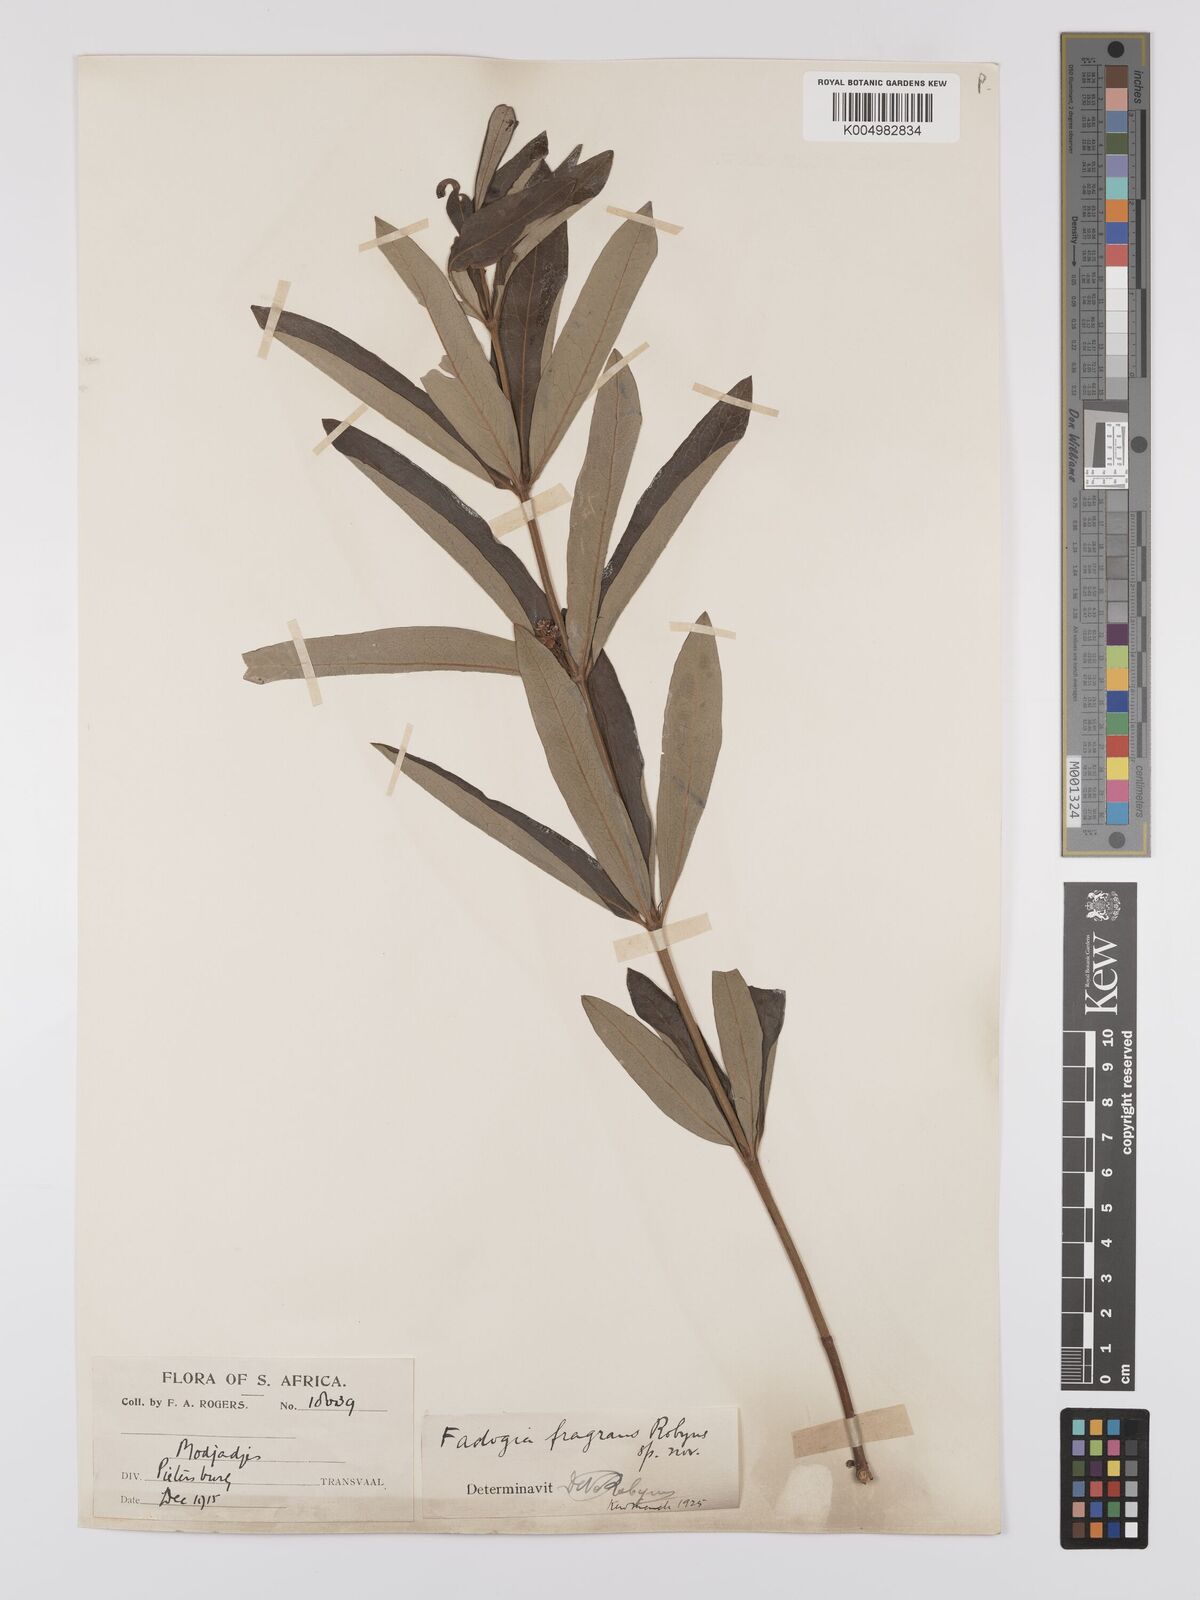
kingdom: Plantae
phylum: Tracheophyta
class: Magnoliopsida
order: Gentianales
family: Rubiaceae
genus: Fadogia
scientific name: Fadogia triphylla
